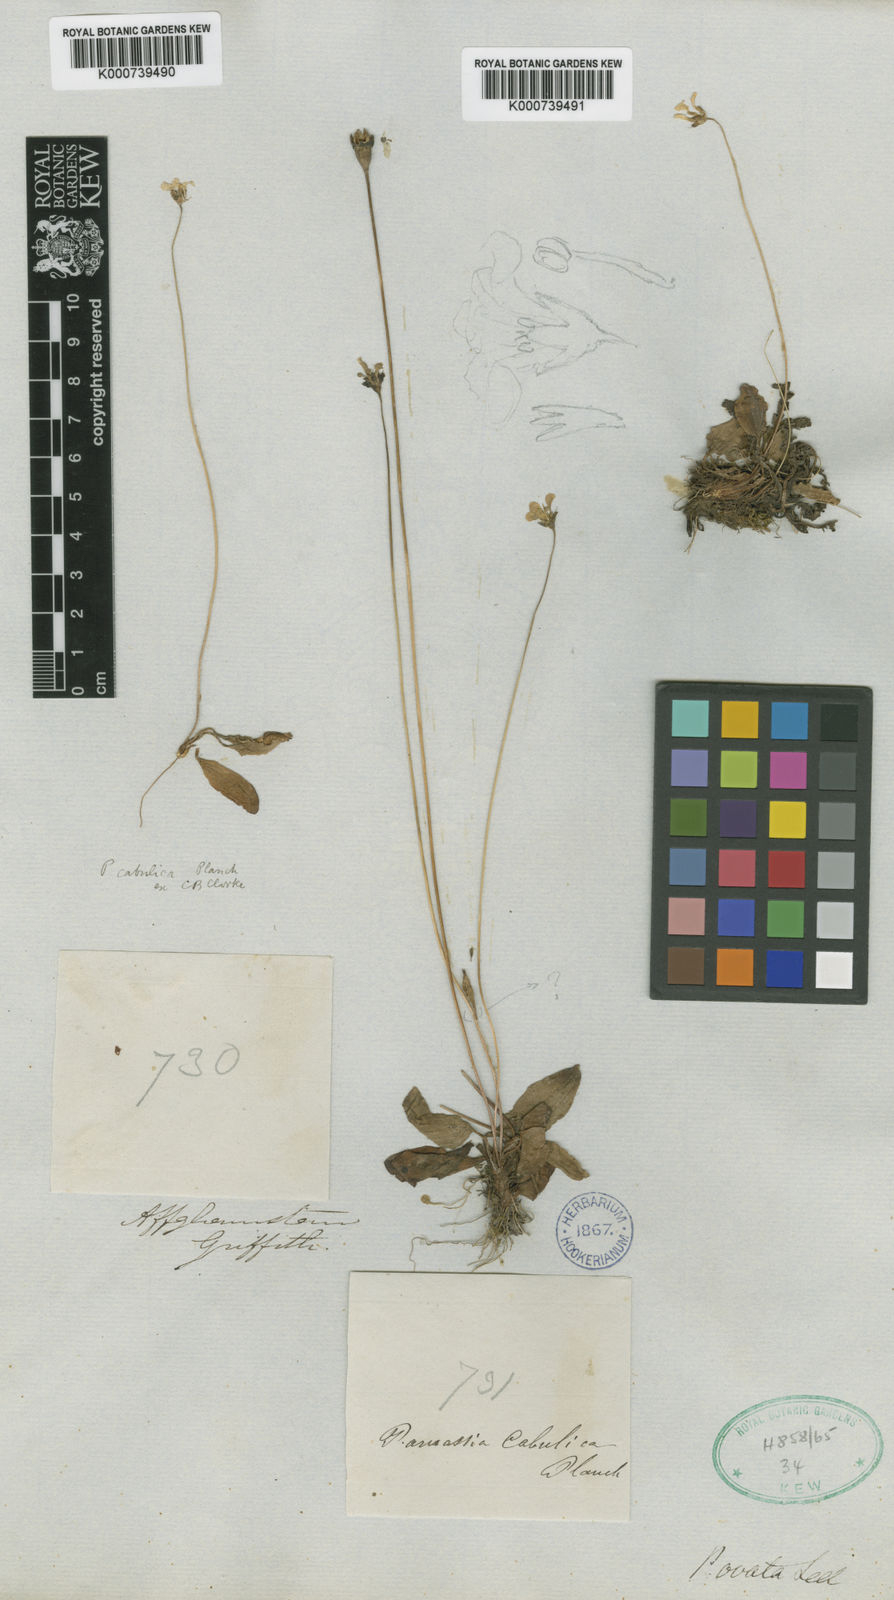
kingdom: Plantae
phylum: Tracheophyta
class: Magnoliopsida
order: Celastrales
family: Parnassiaceae
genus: Parnassia
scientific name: Parnassia cabulica
